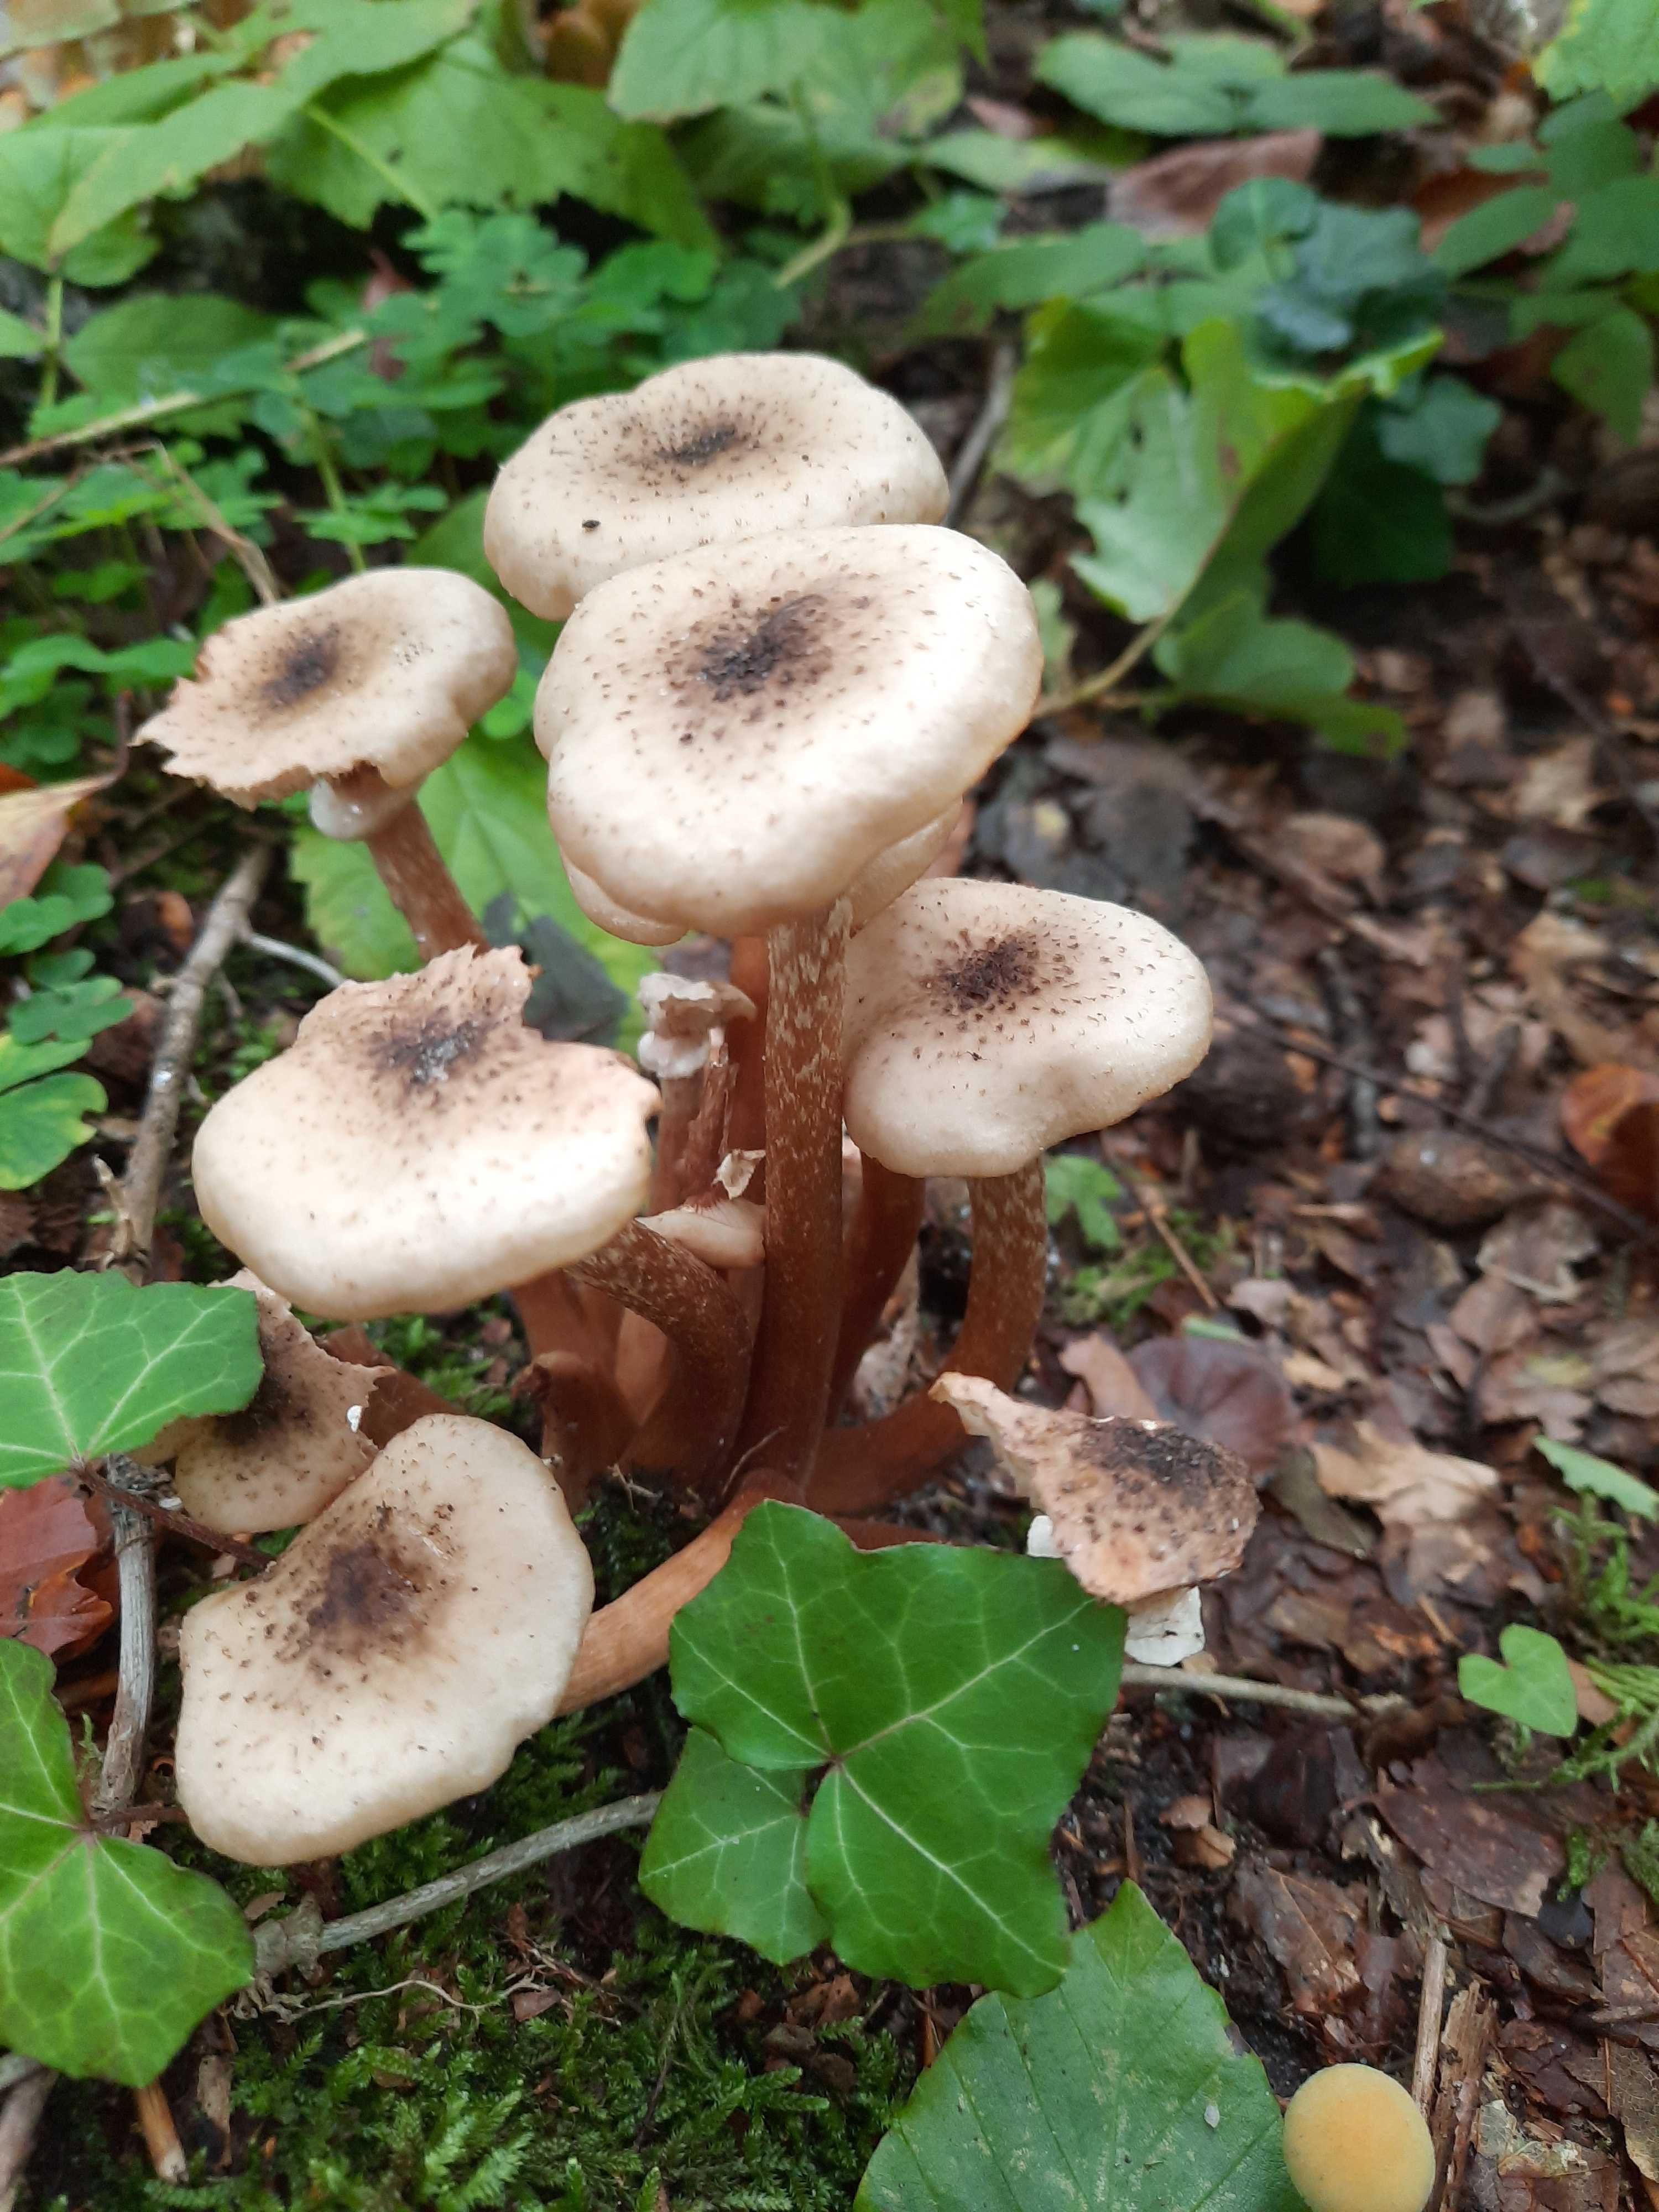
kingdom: Fungi
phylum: Basidiomycota
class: Agaricomycetes
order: Agaricales
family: Physalacriaceae
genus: Armillaria
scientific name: Armillaria mellea
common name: ægte honningsvamp
